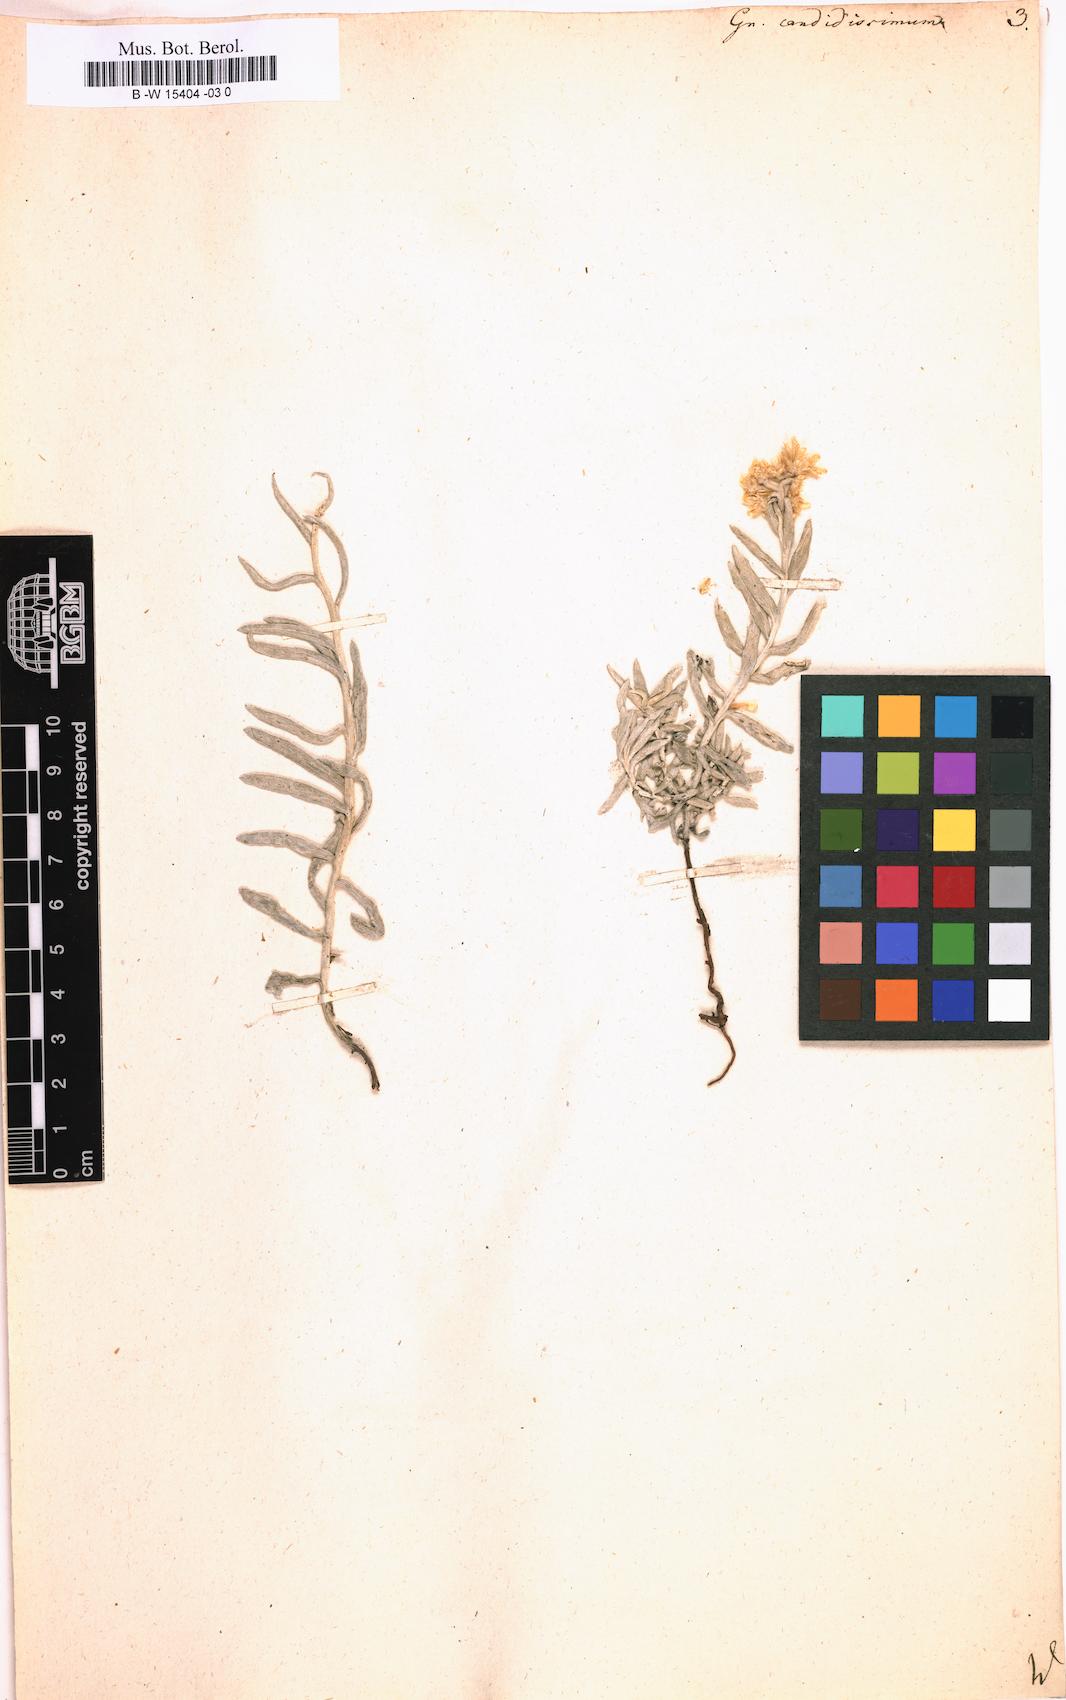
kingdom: Plantae
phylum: Tracheophyta
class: Magnoliopsida
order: Asterales
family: Asteraceae
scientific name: Asteraceae
